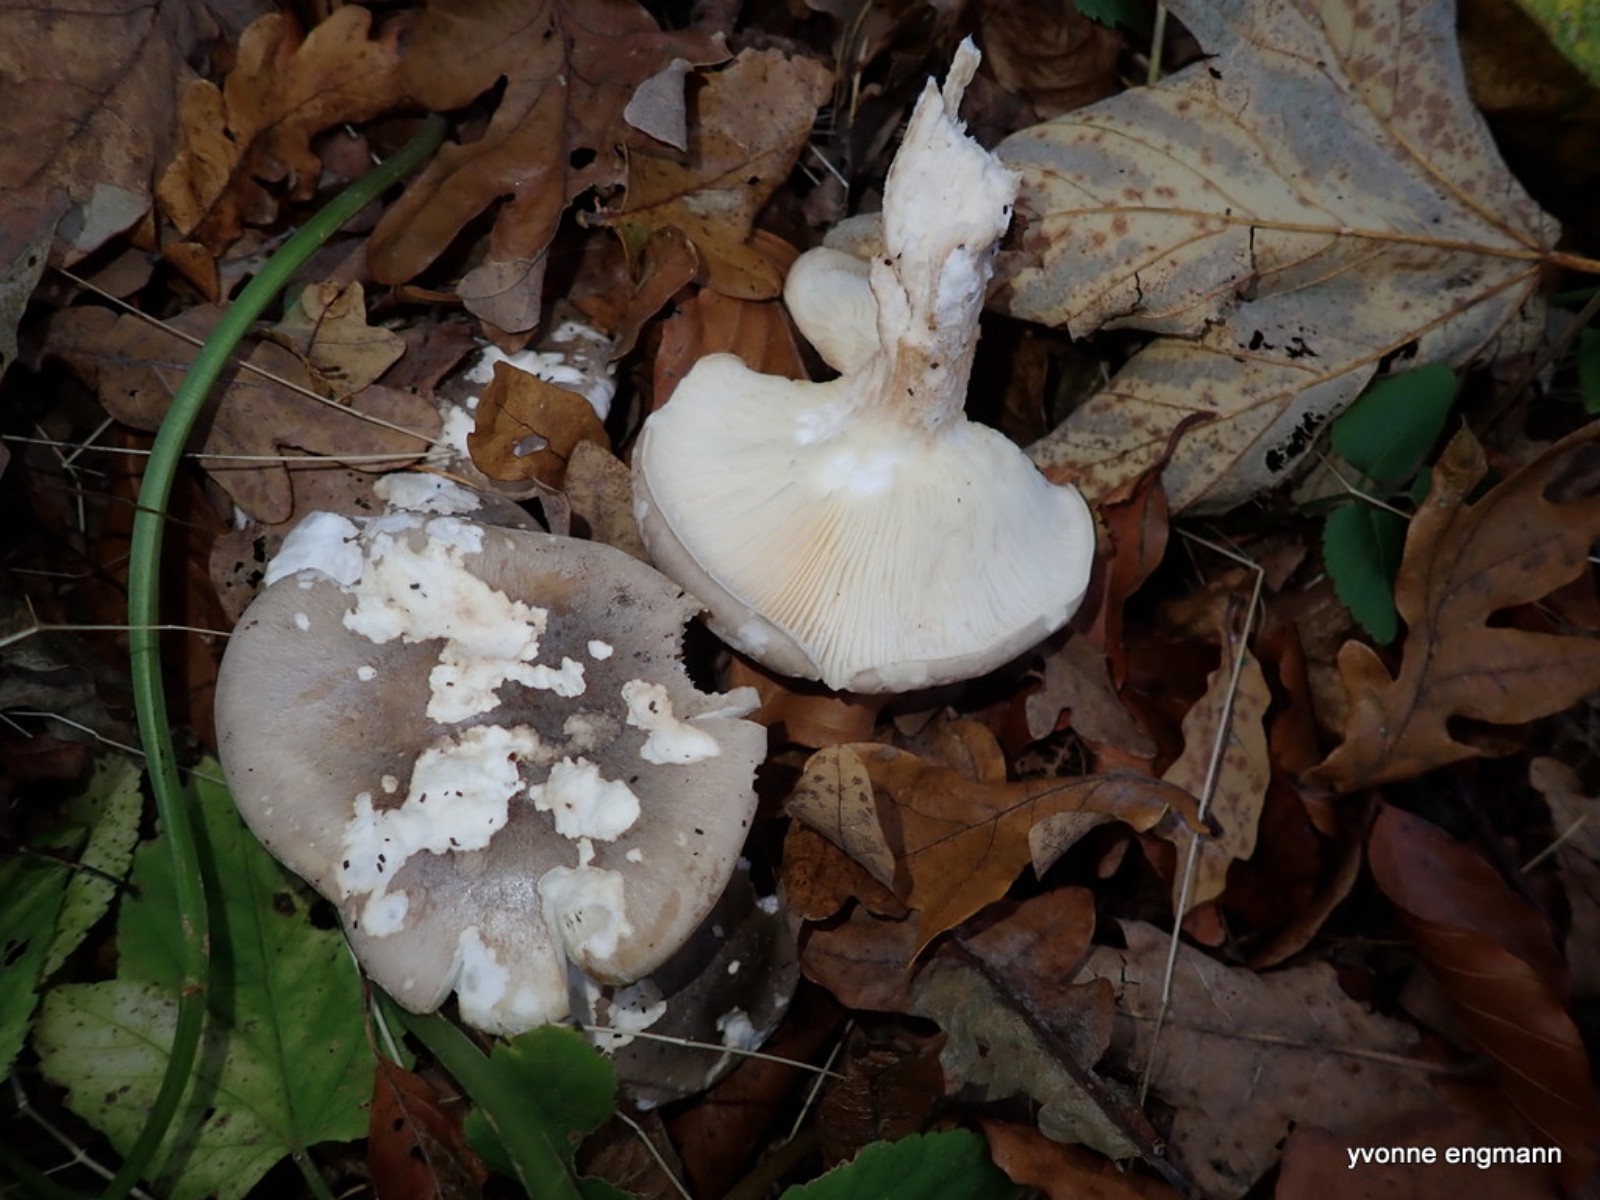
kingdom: Fungi
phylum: Basidiomycota
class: Agaricomycetes
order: Agaricales
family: Tricholomataceae
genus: Clitocybe
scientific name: Clitocybe nebularis
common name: tåge-tragthat
